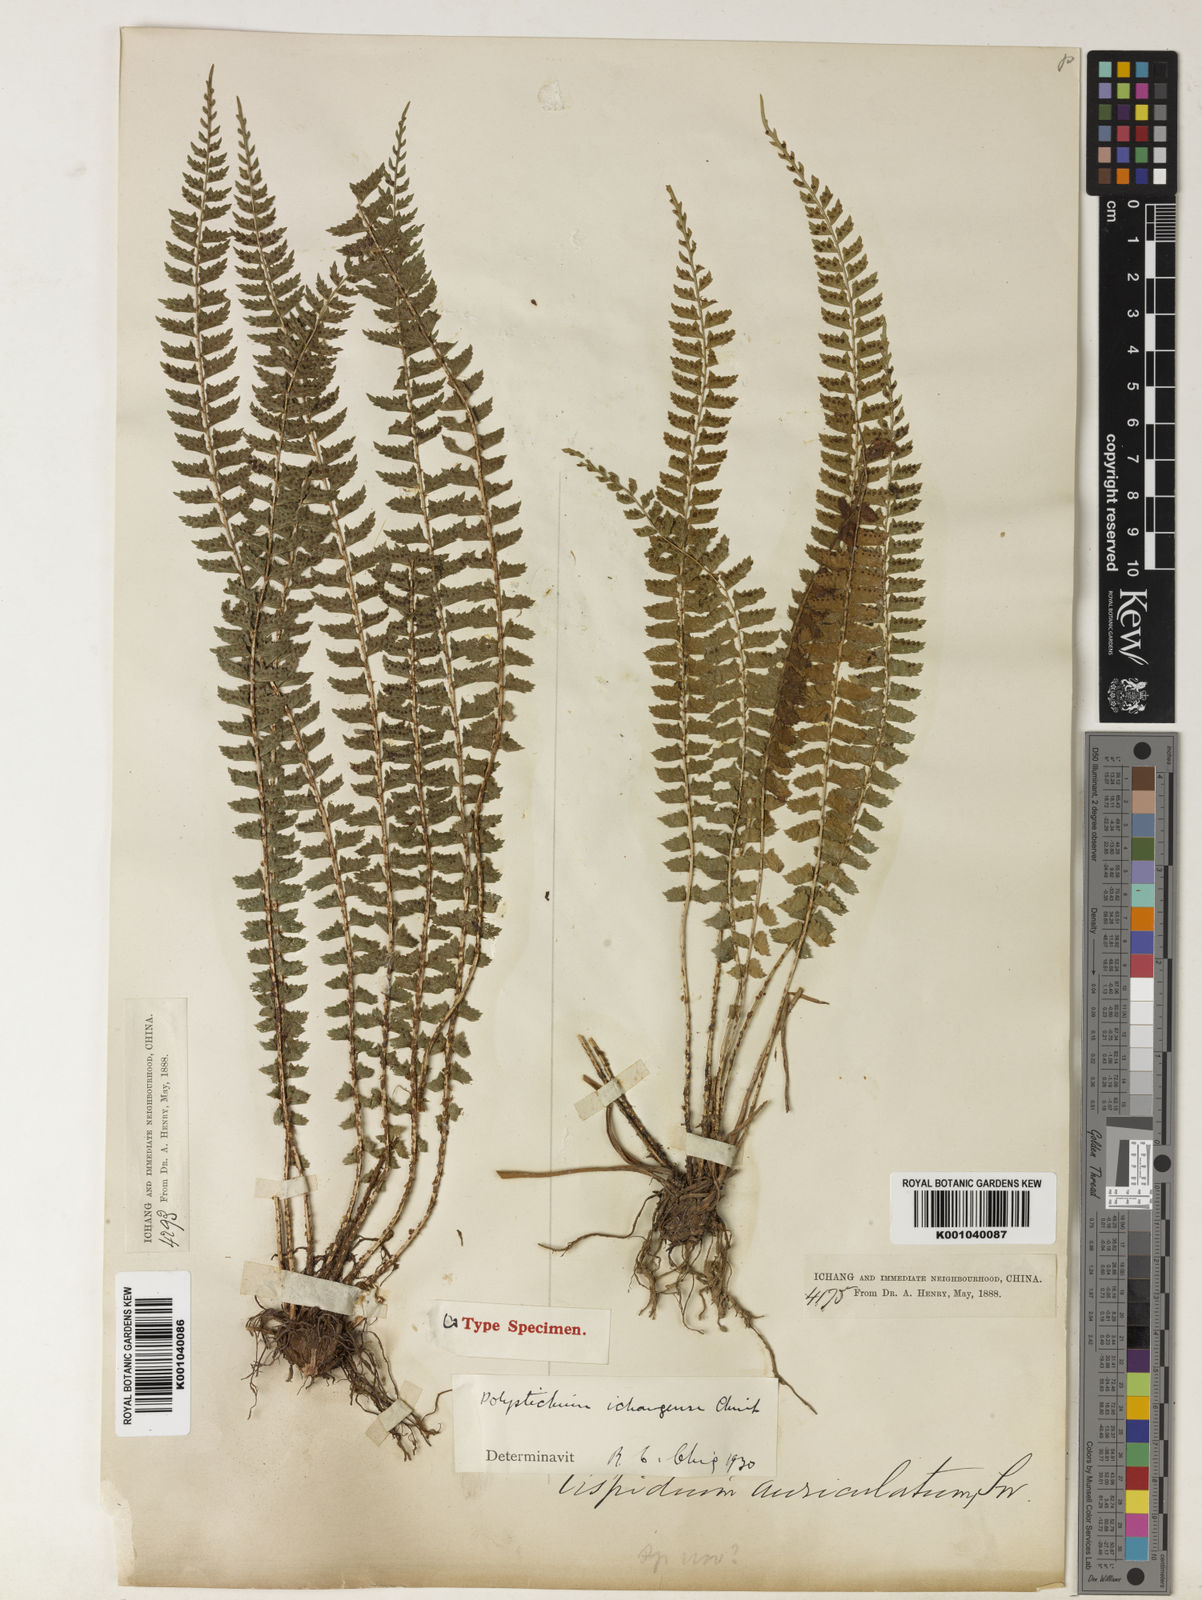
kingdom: Plantae
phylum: Tracheophyta
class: Polypodiopsida
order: Polypodiales
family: Dryopteridaceae
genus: Polystichum
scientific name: Polystichum ichangense
